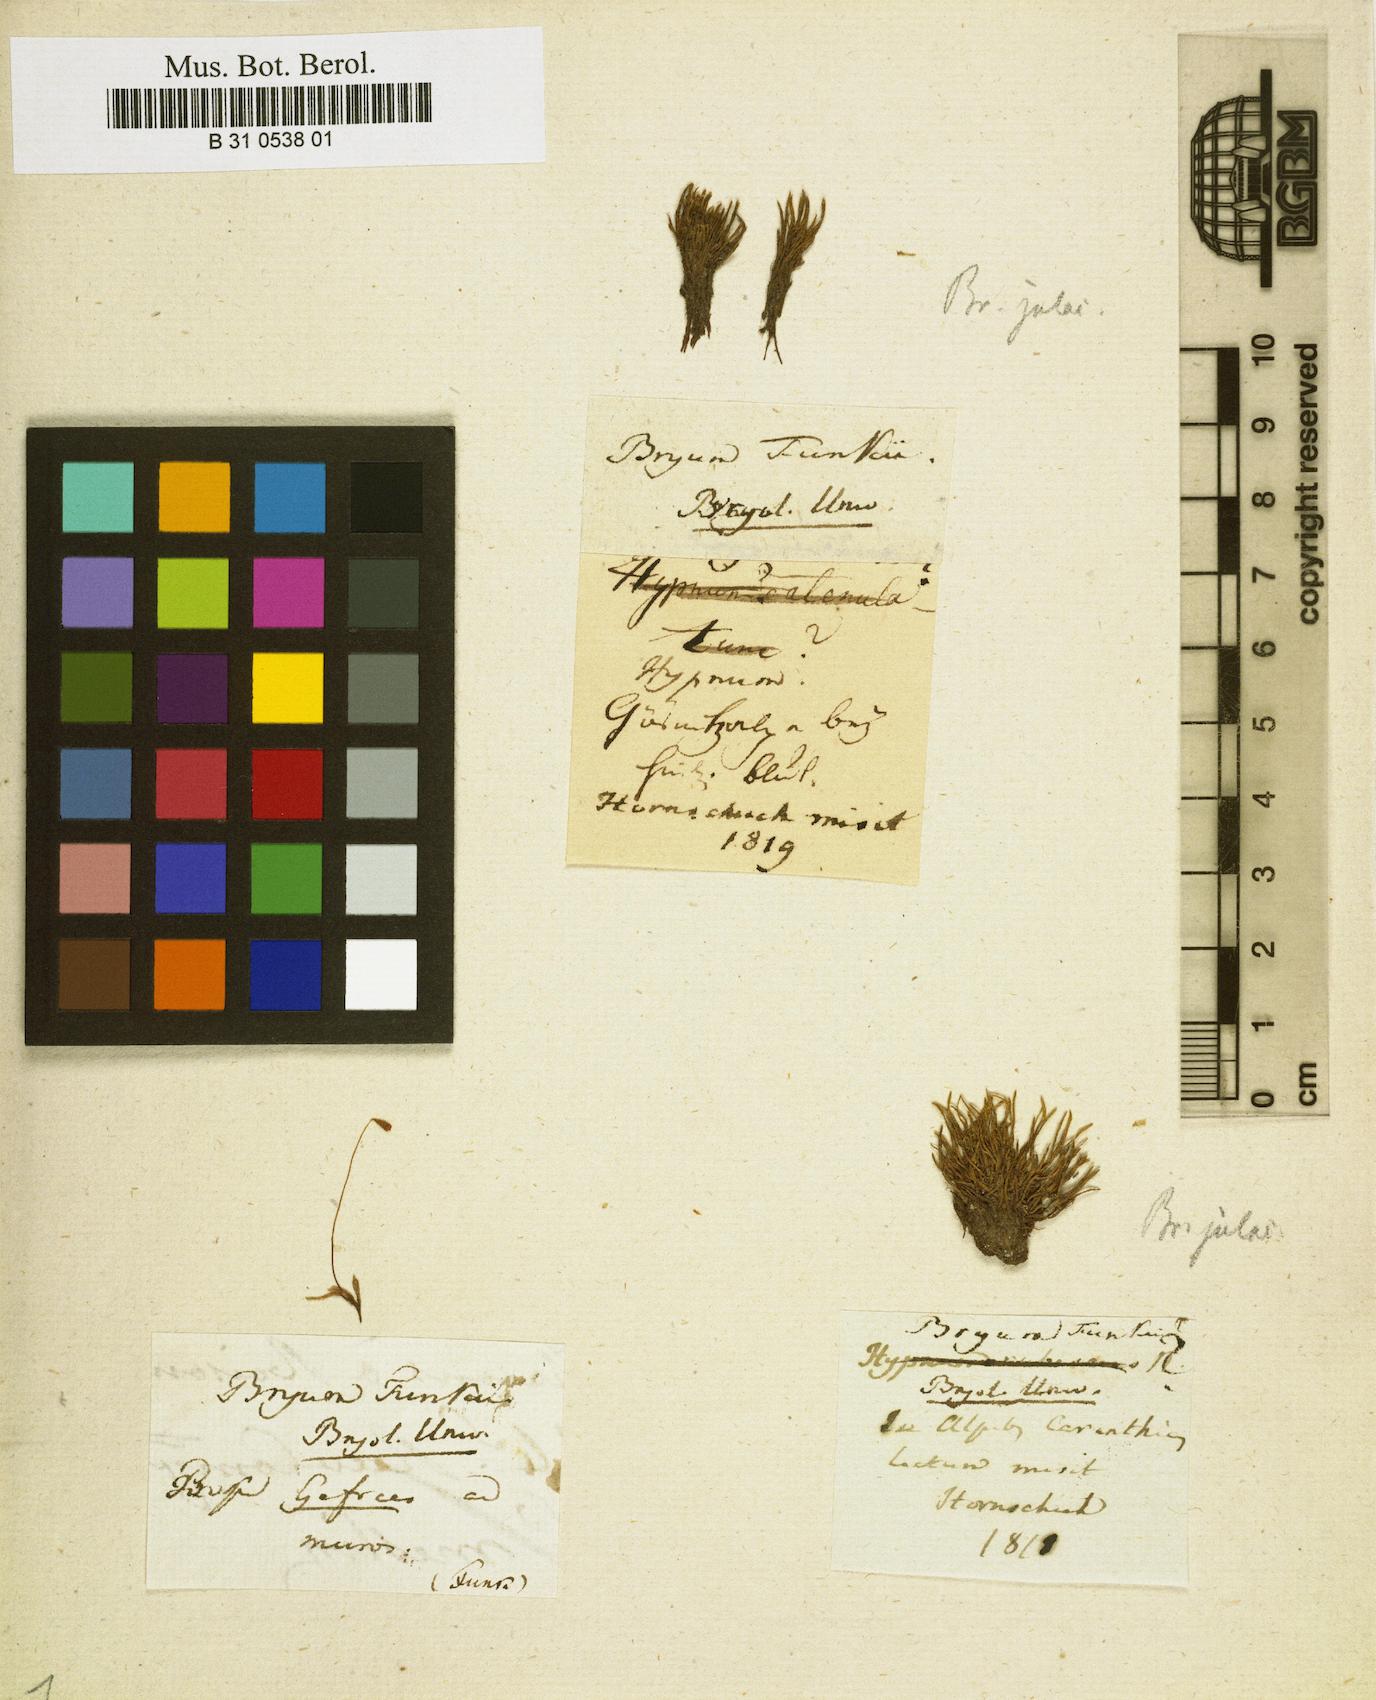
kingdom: Plantae
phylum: Bryophyta
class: Bryopsida
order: Bryales
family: Bryaceae
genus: Ptychostomum
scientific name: Ptychostomum funkii
